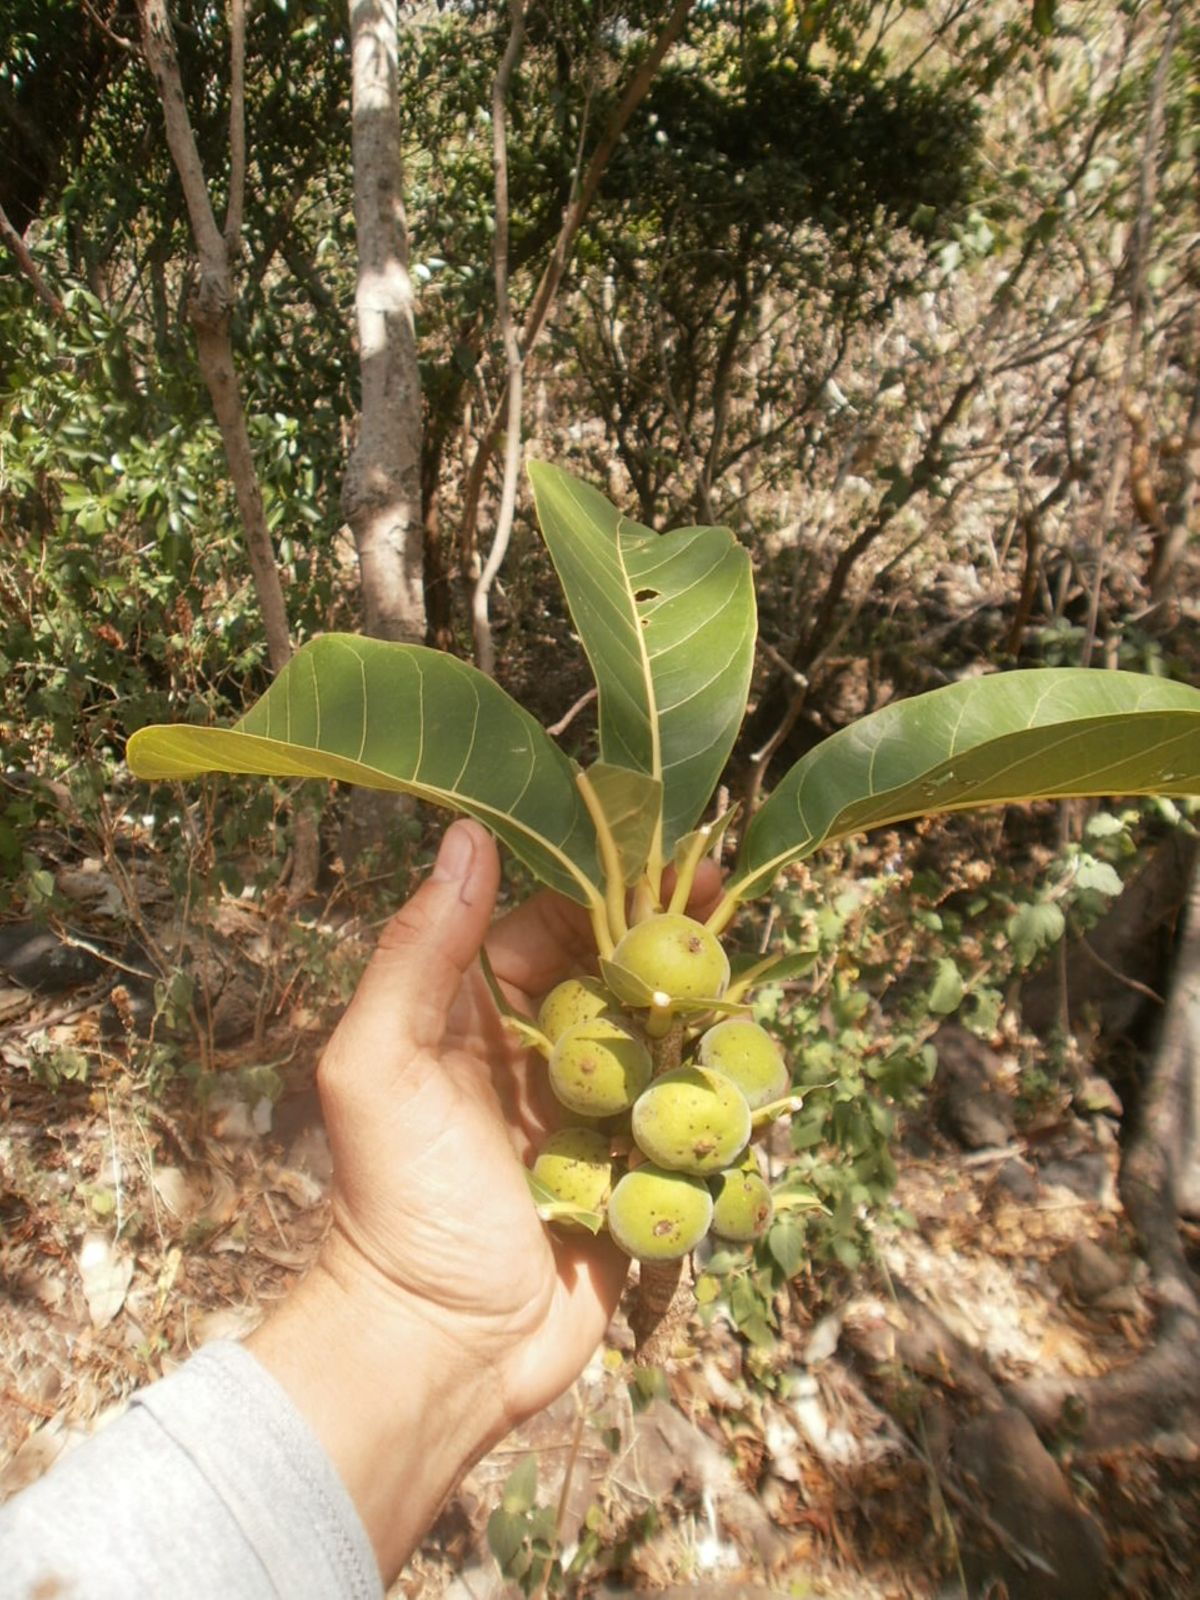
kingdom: Plantae
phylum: Tracheophyta
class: Magnoliopsida
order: Rosales
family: Moraceae
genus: Ficus
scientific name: Ficus obtusifolia
